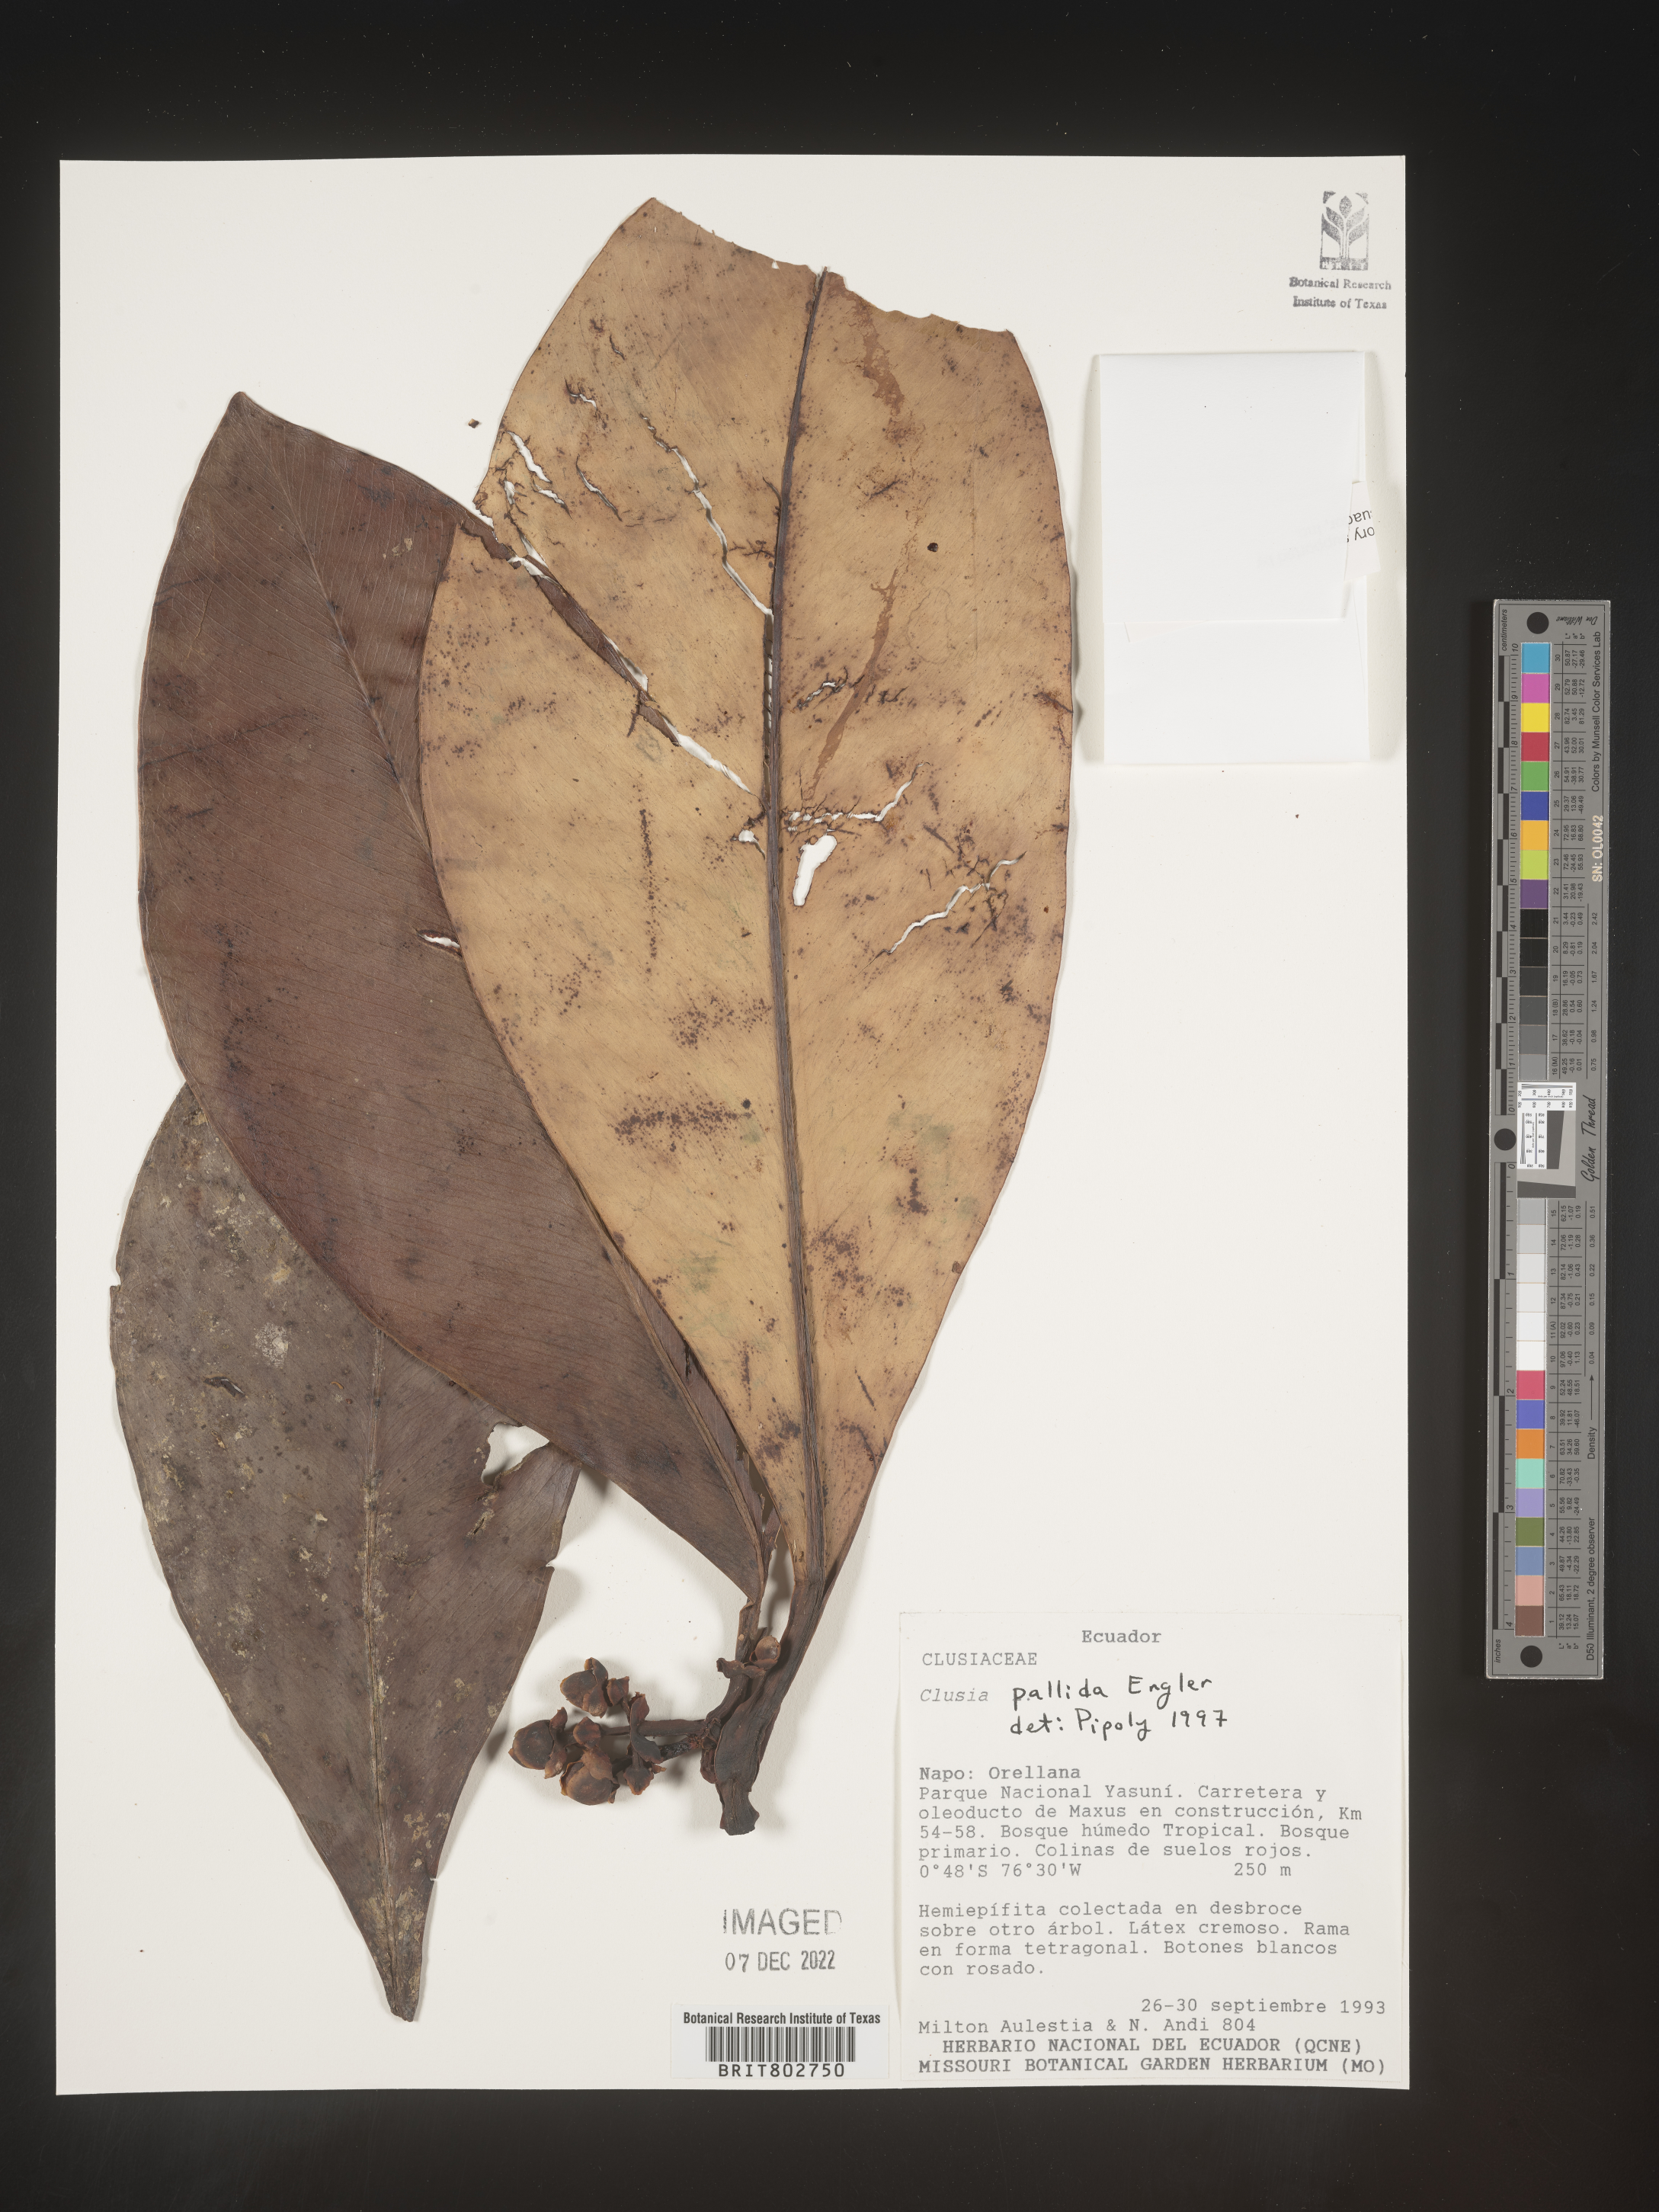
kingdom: Plantae
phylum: Tracheophyta
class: Magnoliopsida
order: Malpighiales
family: Clusiaceae
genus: Clusia
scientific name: Clusia pallida
